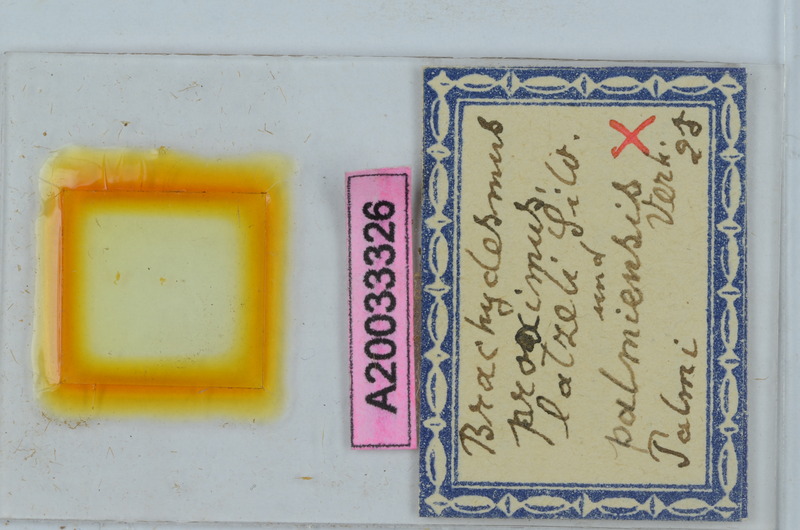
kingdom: Animalia
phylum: Arthropoda
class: Diplopoda
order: Polydesmida
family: Polydesmidae
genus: Brachydesmus
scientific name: Brachydesmus proximus
